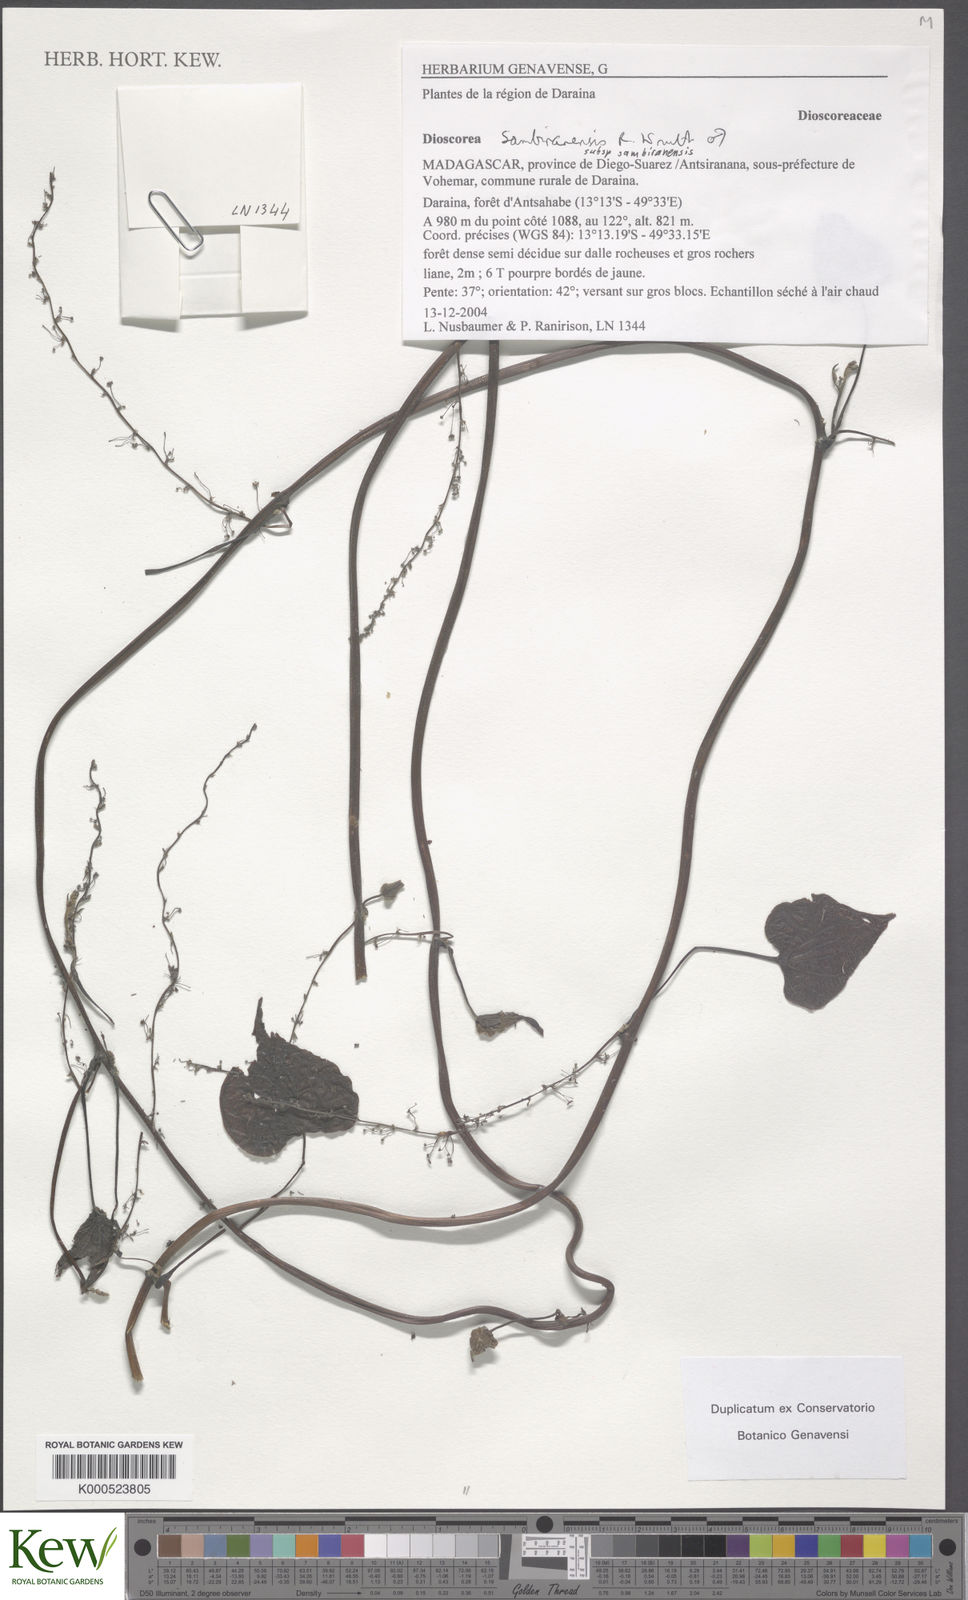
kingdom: Plantae
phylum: Tracheophyta
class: Liliopsida
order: Dioscoreales
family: Dioscoreaceae
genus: Dioscorea
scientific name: Dioscorea sambiranensis
